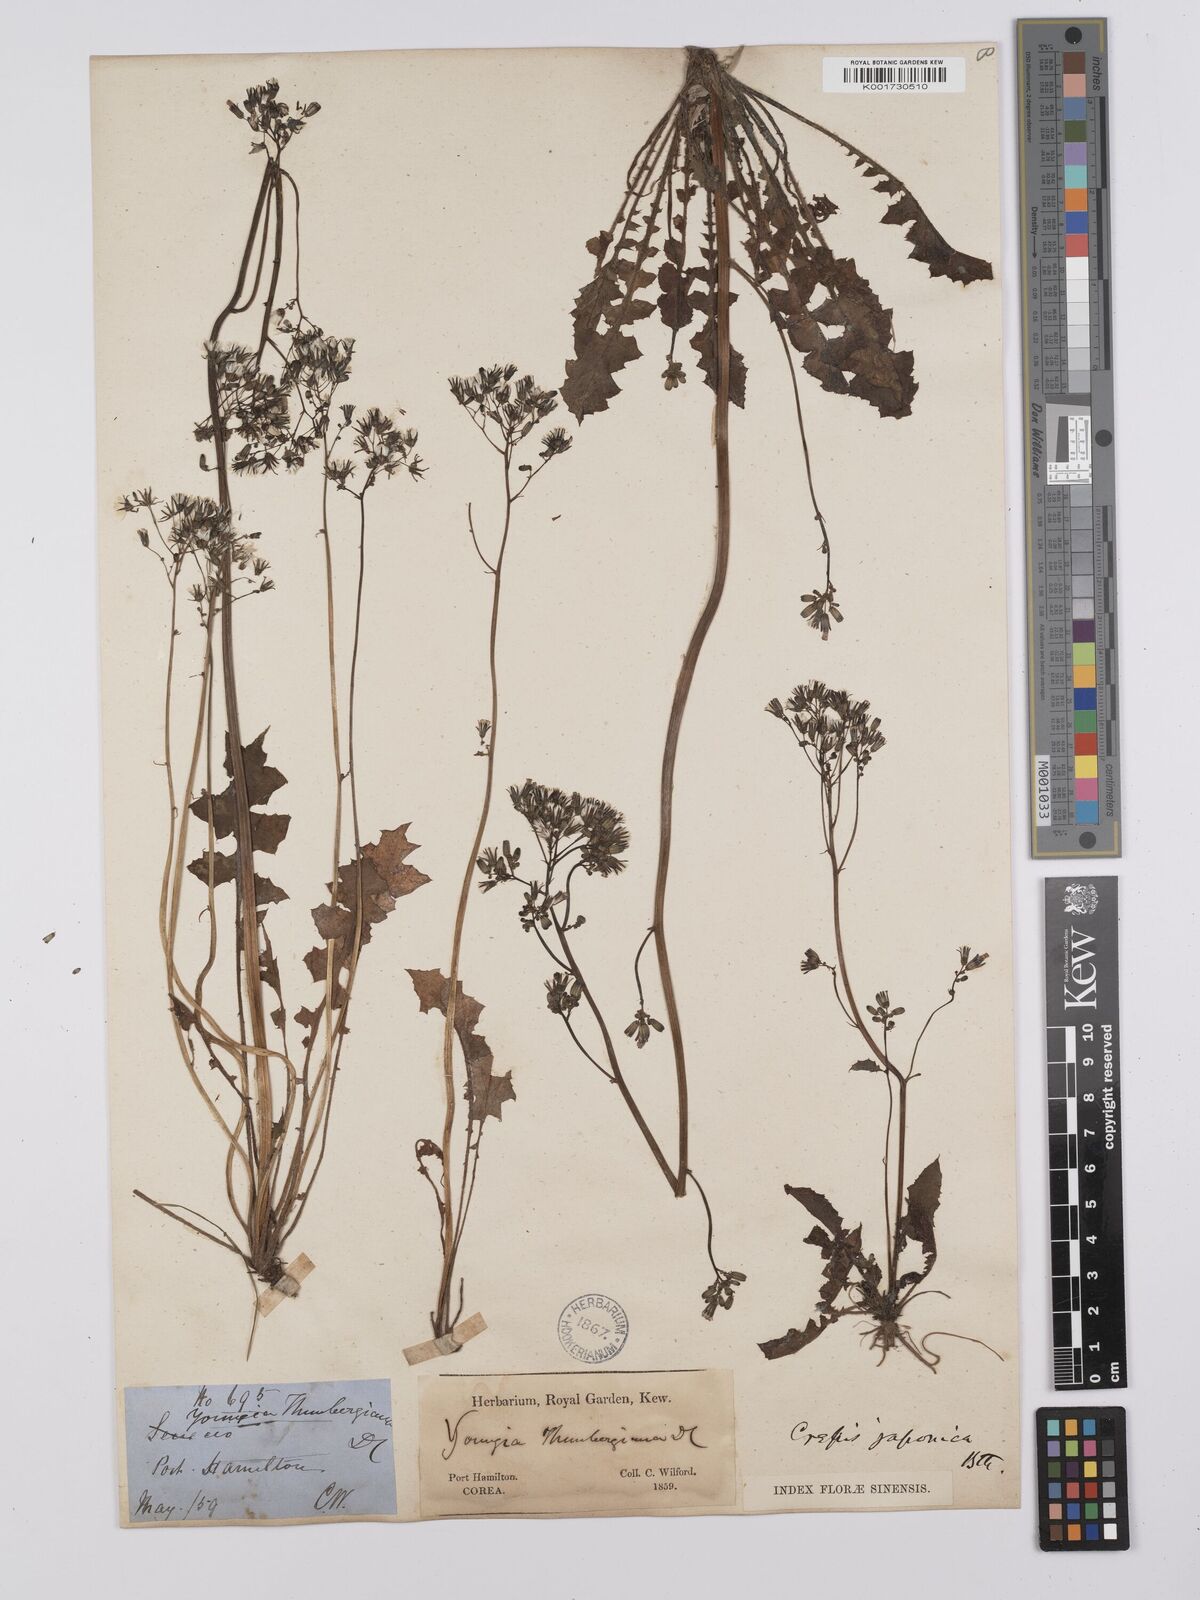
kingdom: Plantae
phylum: Tracheophyta
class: Magnoliopsida
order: Asterales
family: Asteraceae
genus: Youngia
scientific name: Youngia
